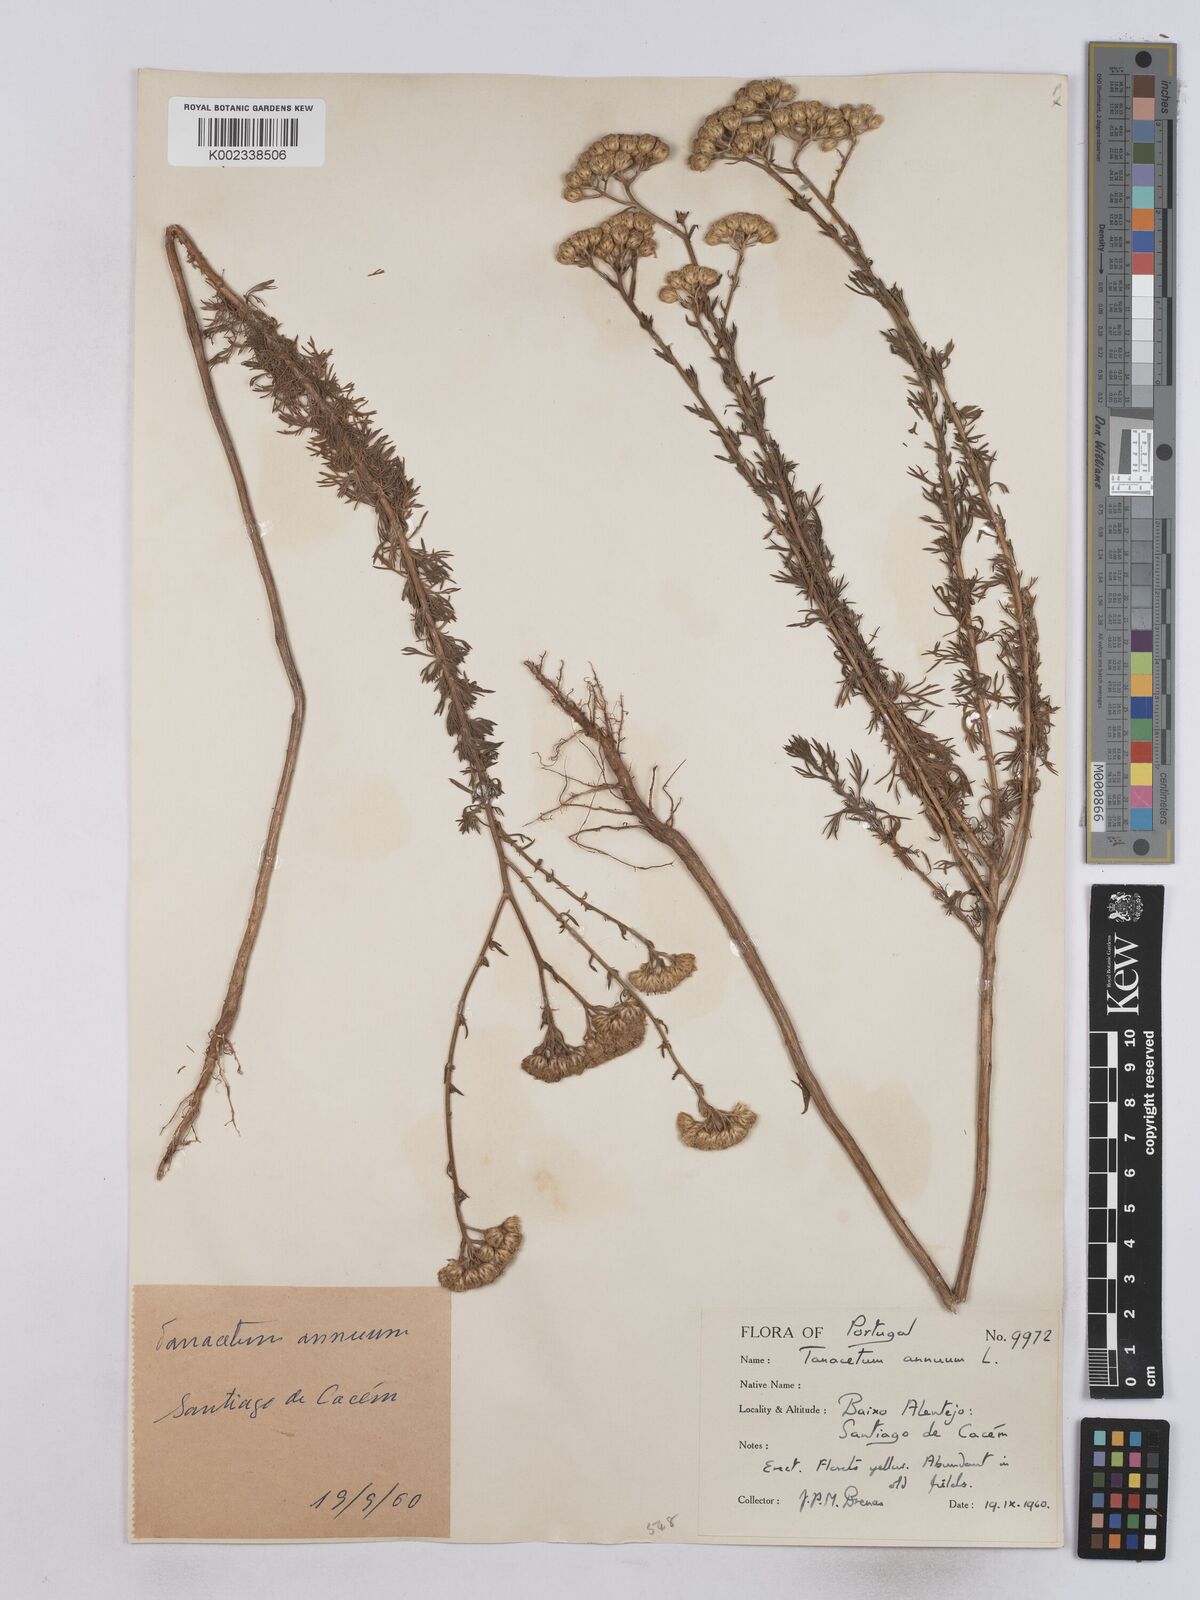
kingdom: Plantae
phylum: Tracheophyta
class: Magnoliopsida
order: Asterales
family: Asteraceae
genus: Vogtia
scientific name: Vogtia annua
